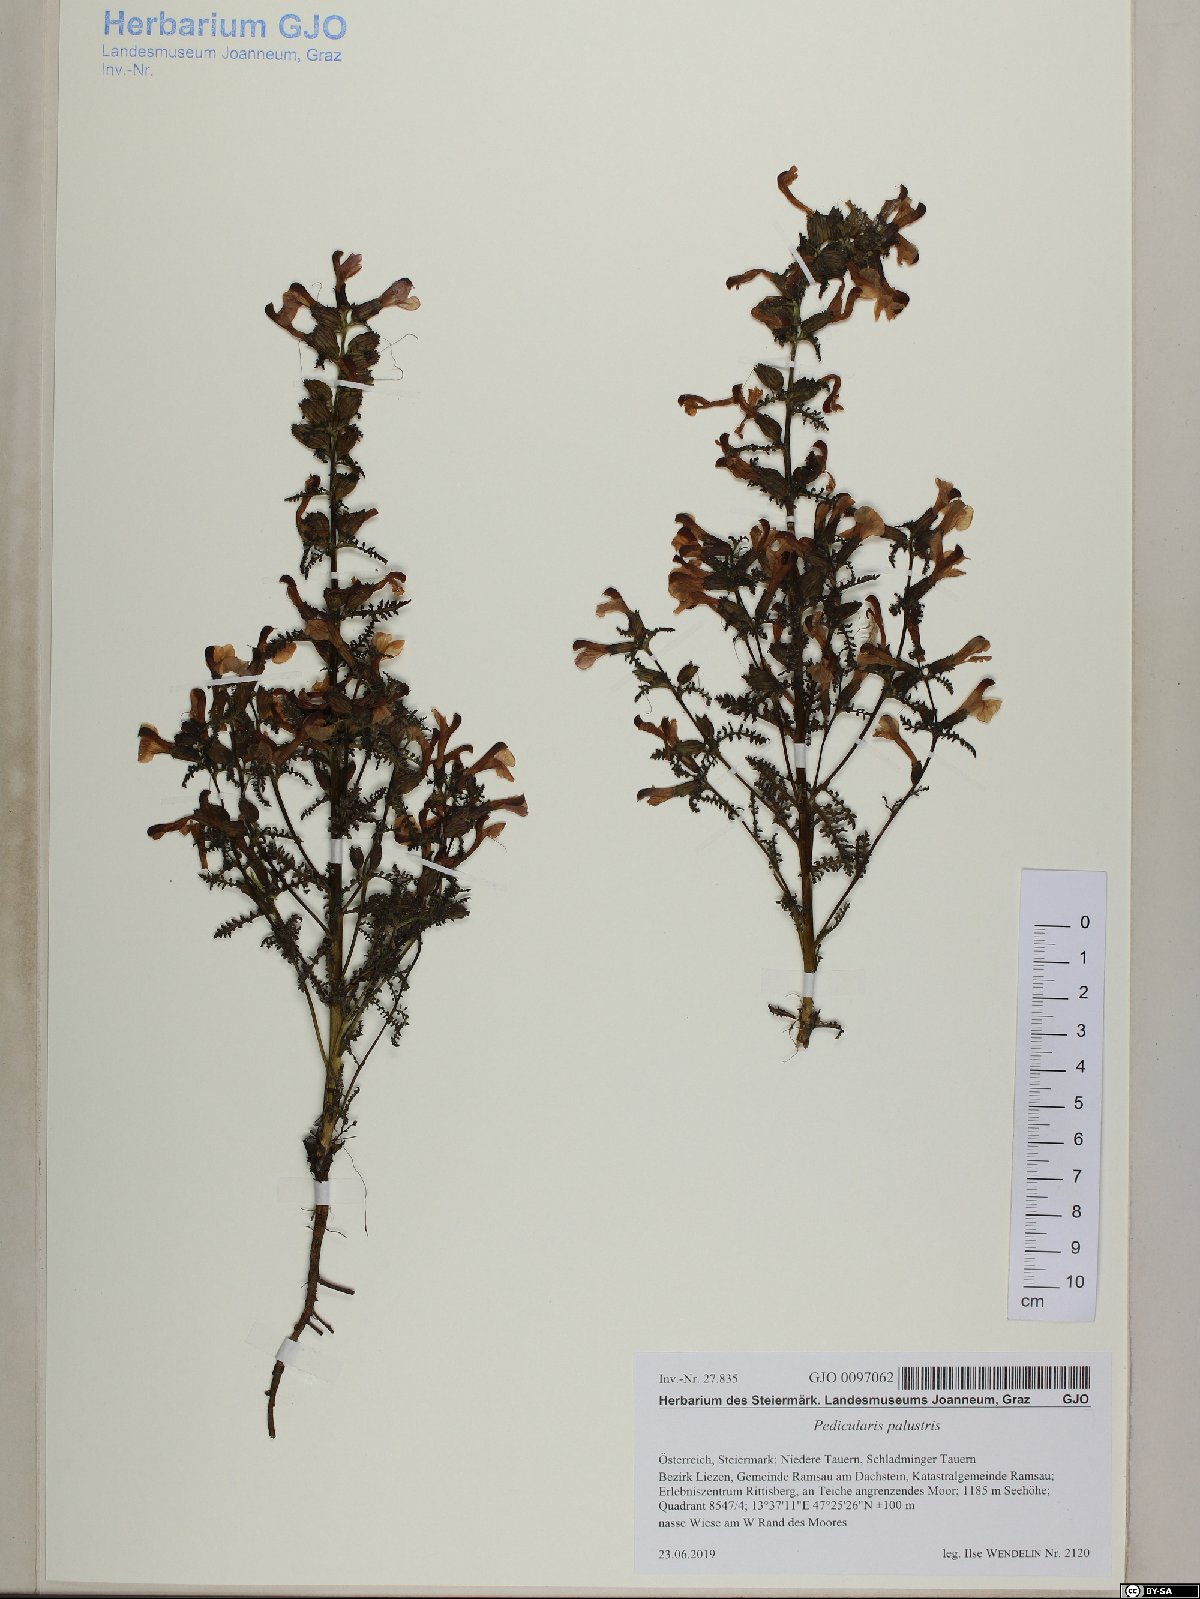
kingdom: Plantae
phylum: Tracheophyta
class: Magnoliopsida
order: Lamiales
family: Orobanchaceae
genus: Pedicularis
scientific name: Pedicularis palustris
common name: Marsh lousewort
